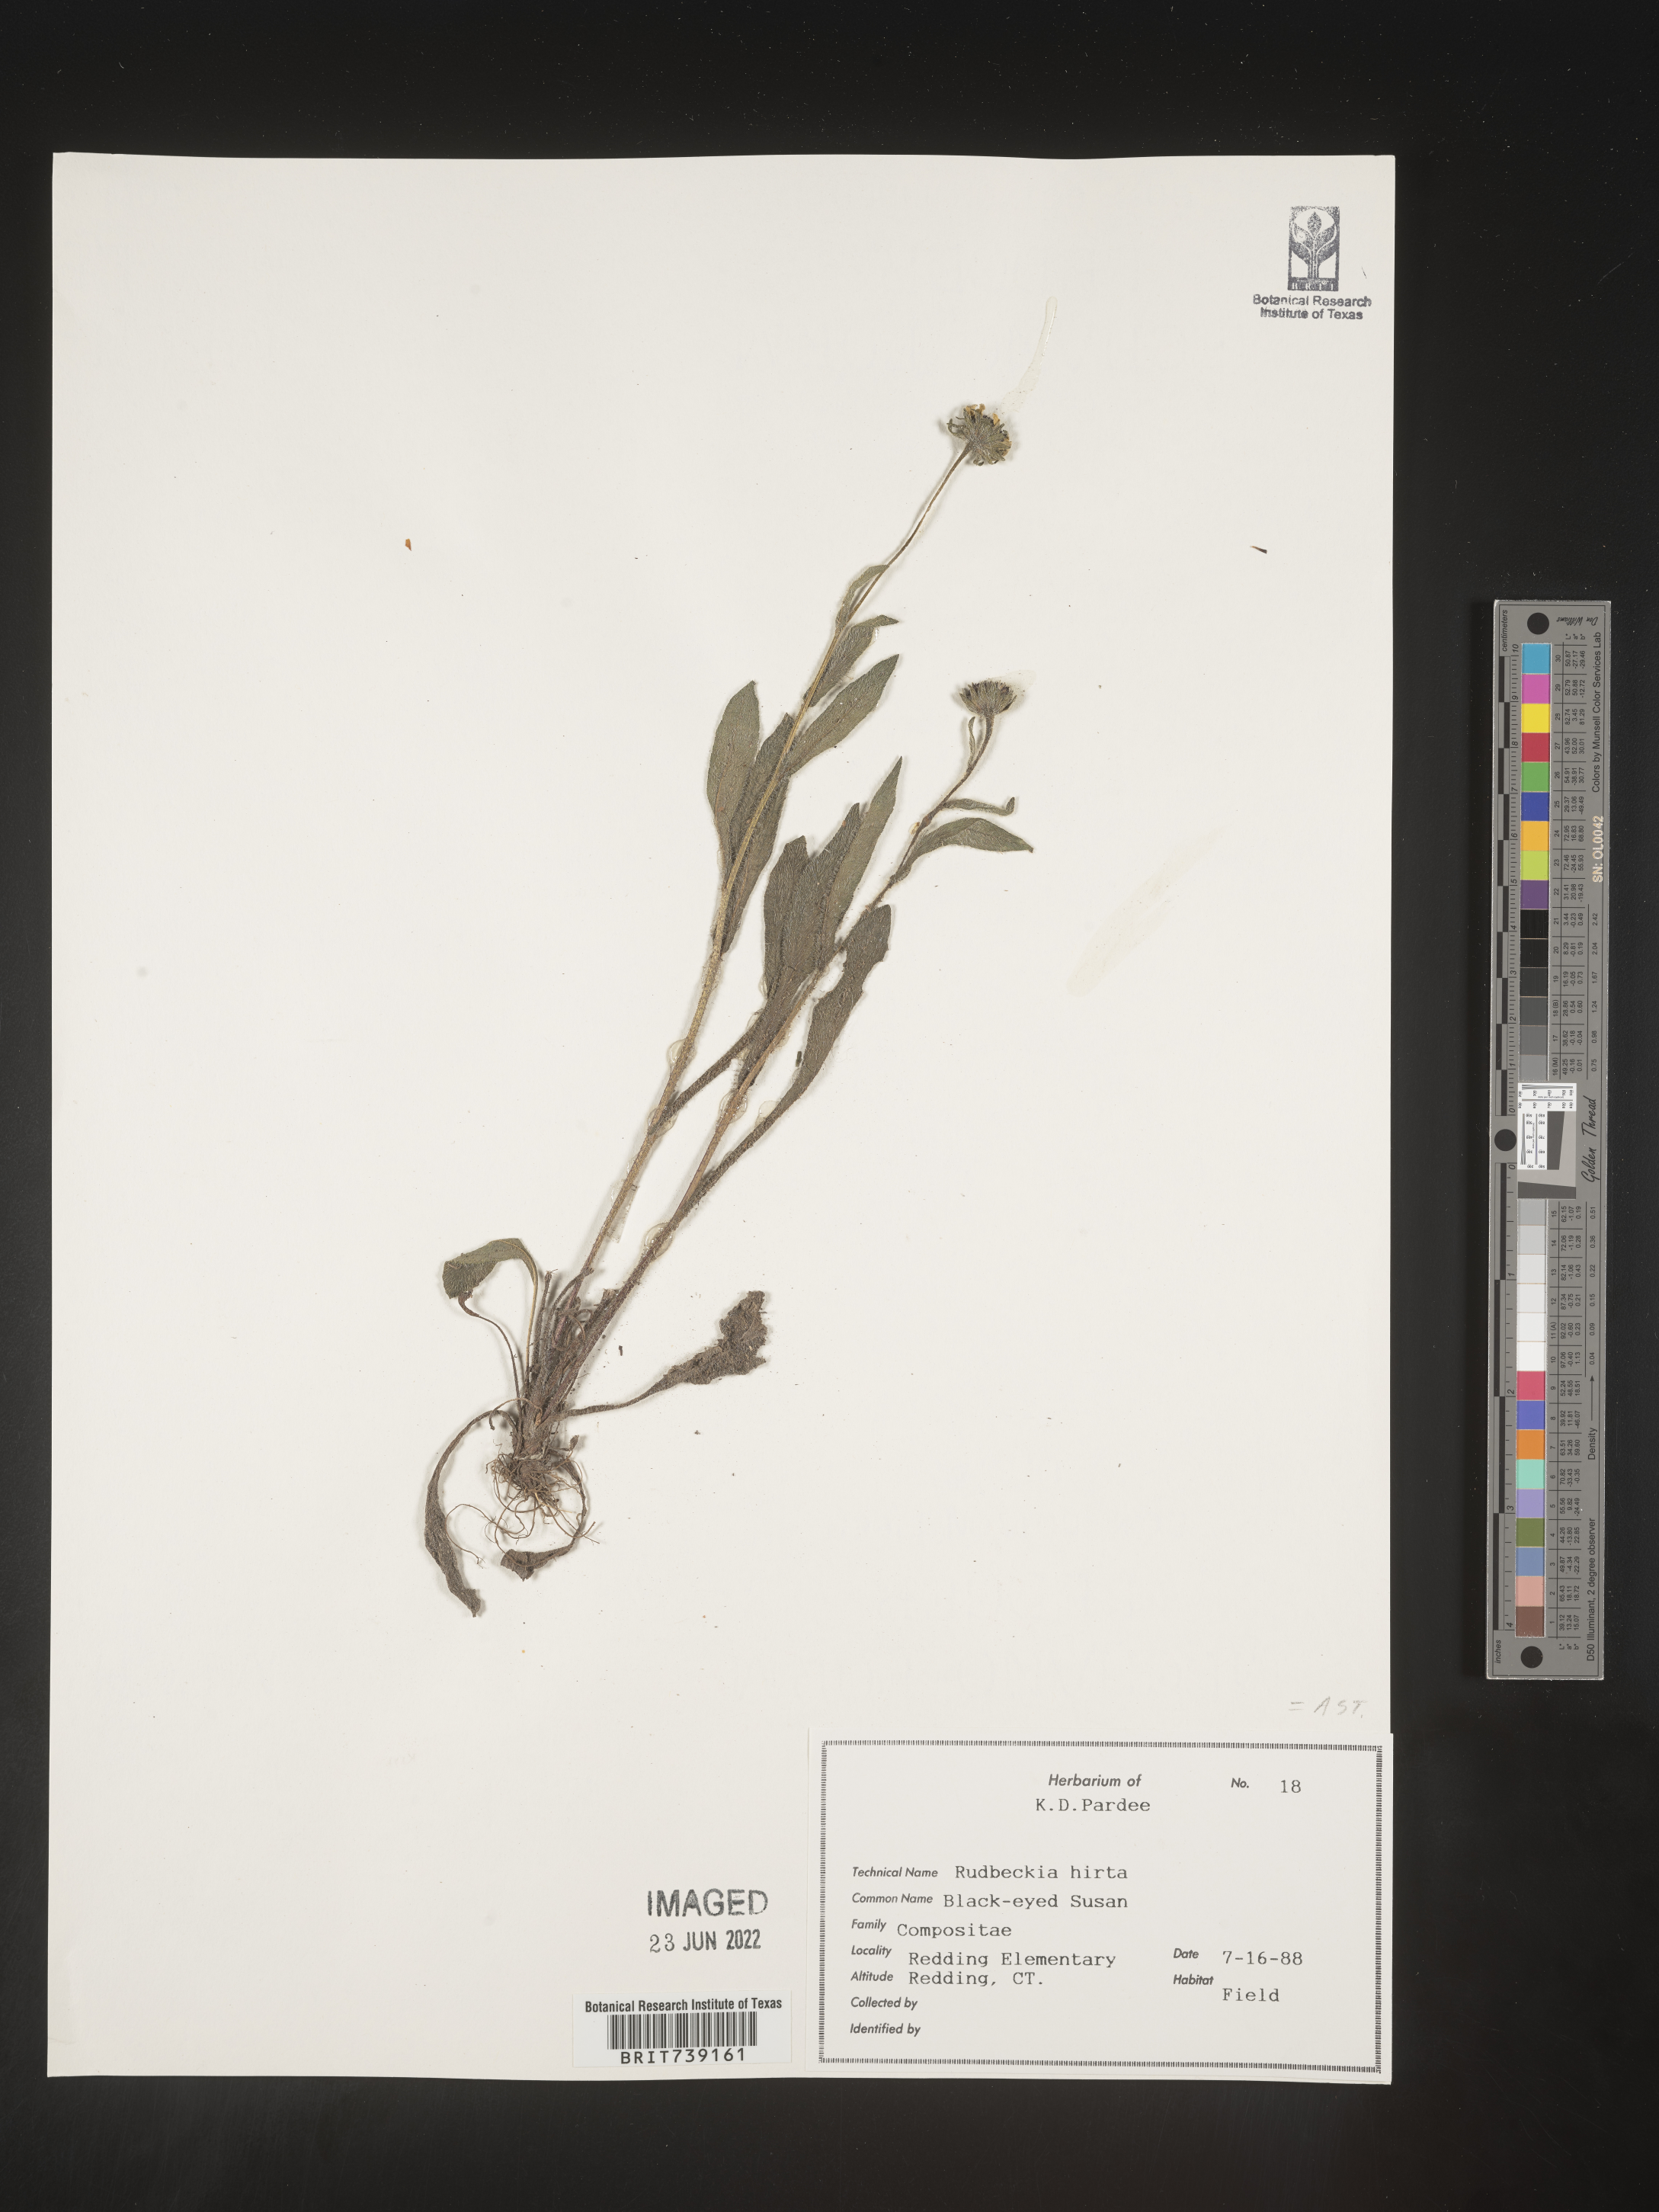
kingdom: Plantae
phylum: Tracheophyta
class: Magnoliopsida
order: Asterales
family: Asteraceae
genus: Rudbeckia
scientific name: Rudbeckia hirta
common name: Black-eyed-susan
